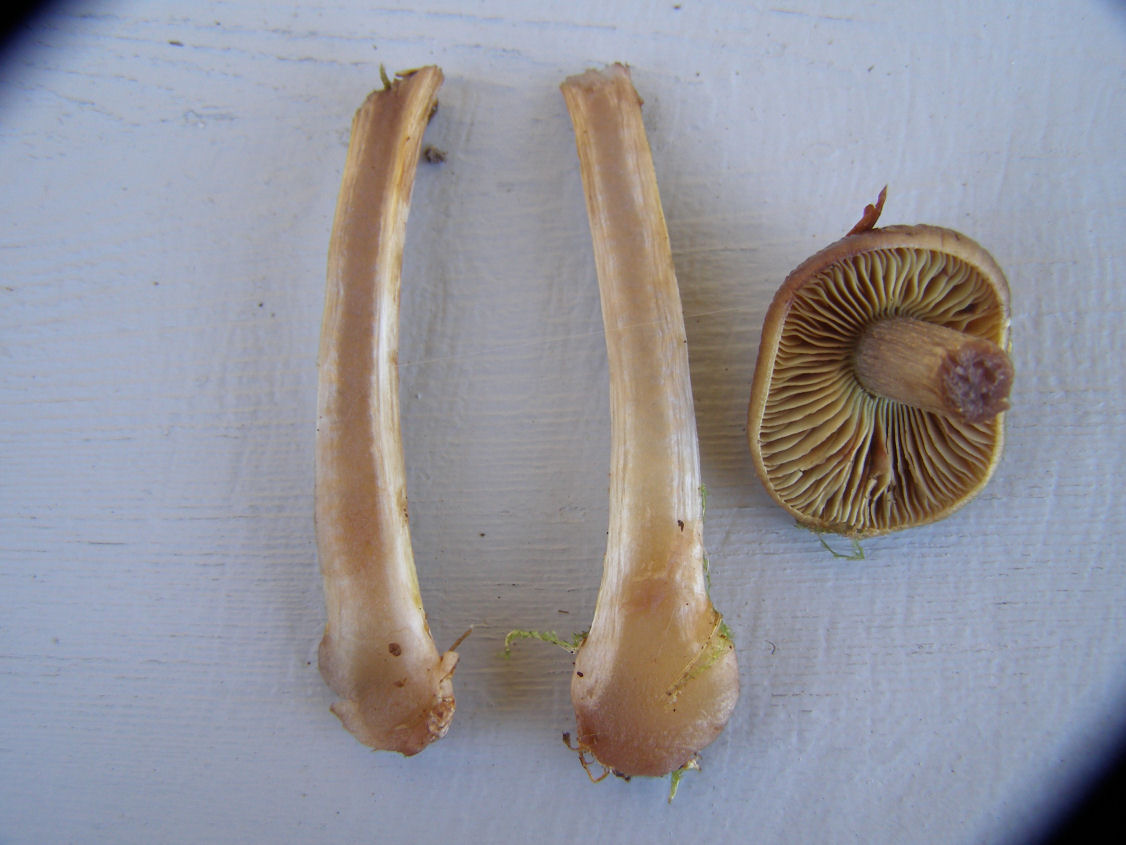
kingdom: Fungi
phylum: Basidiomycota
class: Agaricomycetes
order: Agaricales
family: Cortinariaceae
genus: Thaxterogaster
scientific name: Thaxterogaster scaurus
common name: sump-slørhat
